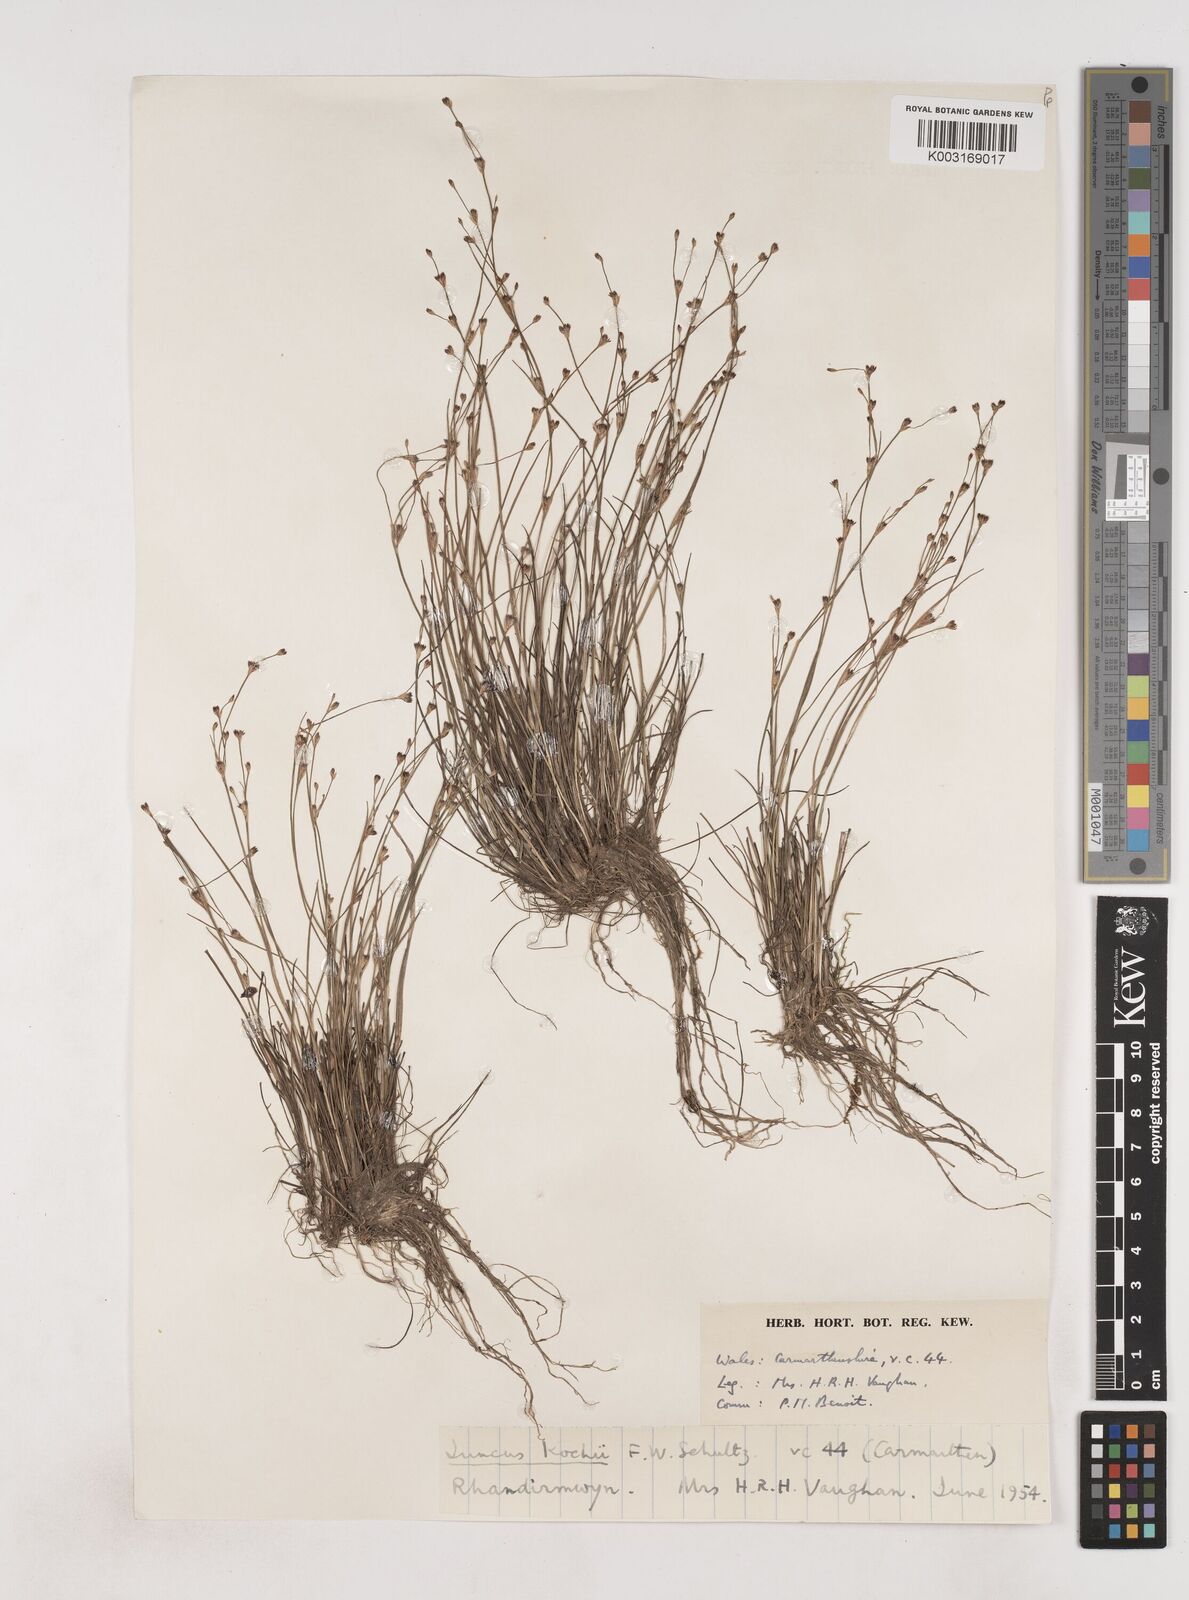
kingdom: Plantae
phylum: Tracheophyta
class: Liliopsida
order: Poales
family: Juncaceae
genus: Juncus
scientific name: Juncus bulbosus
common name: Bulbous rush
